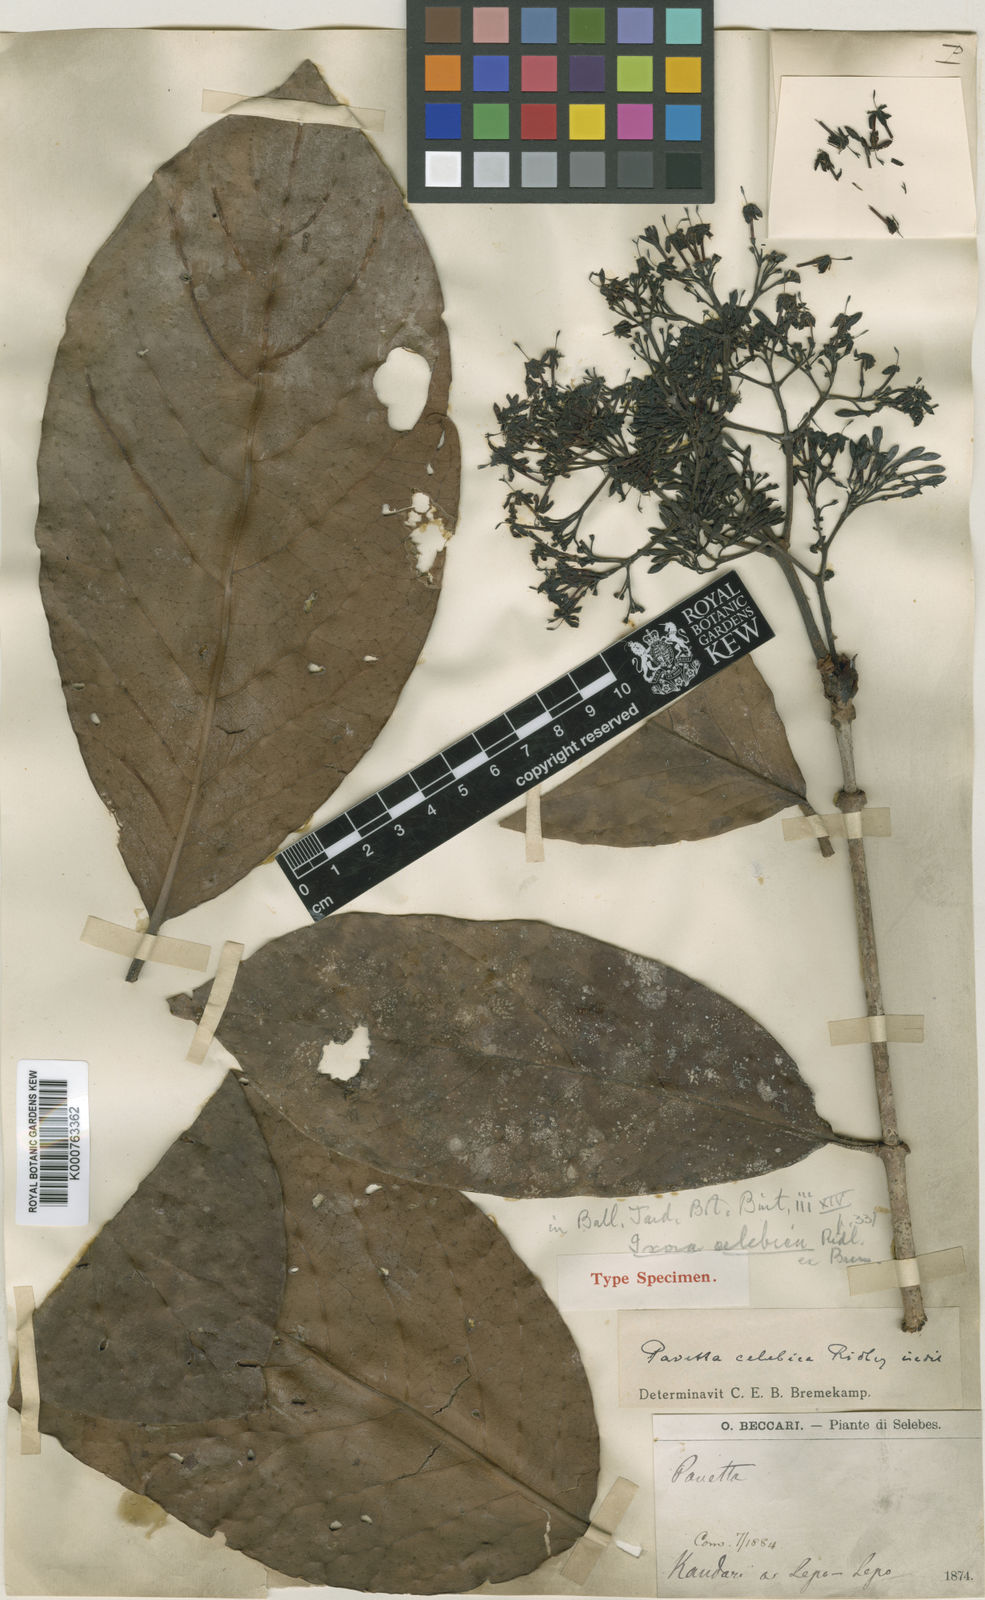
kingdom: Plantae
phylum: Tracheophyta
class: Magnoliopsida
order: Gentianales
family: Rubiaceae
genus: Ixora
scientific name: Ixora celebica
